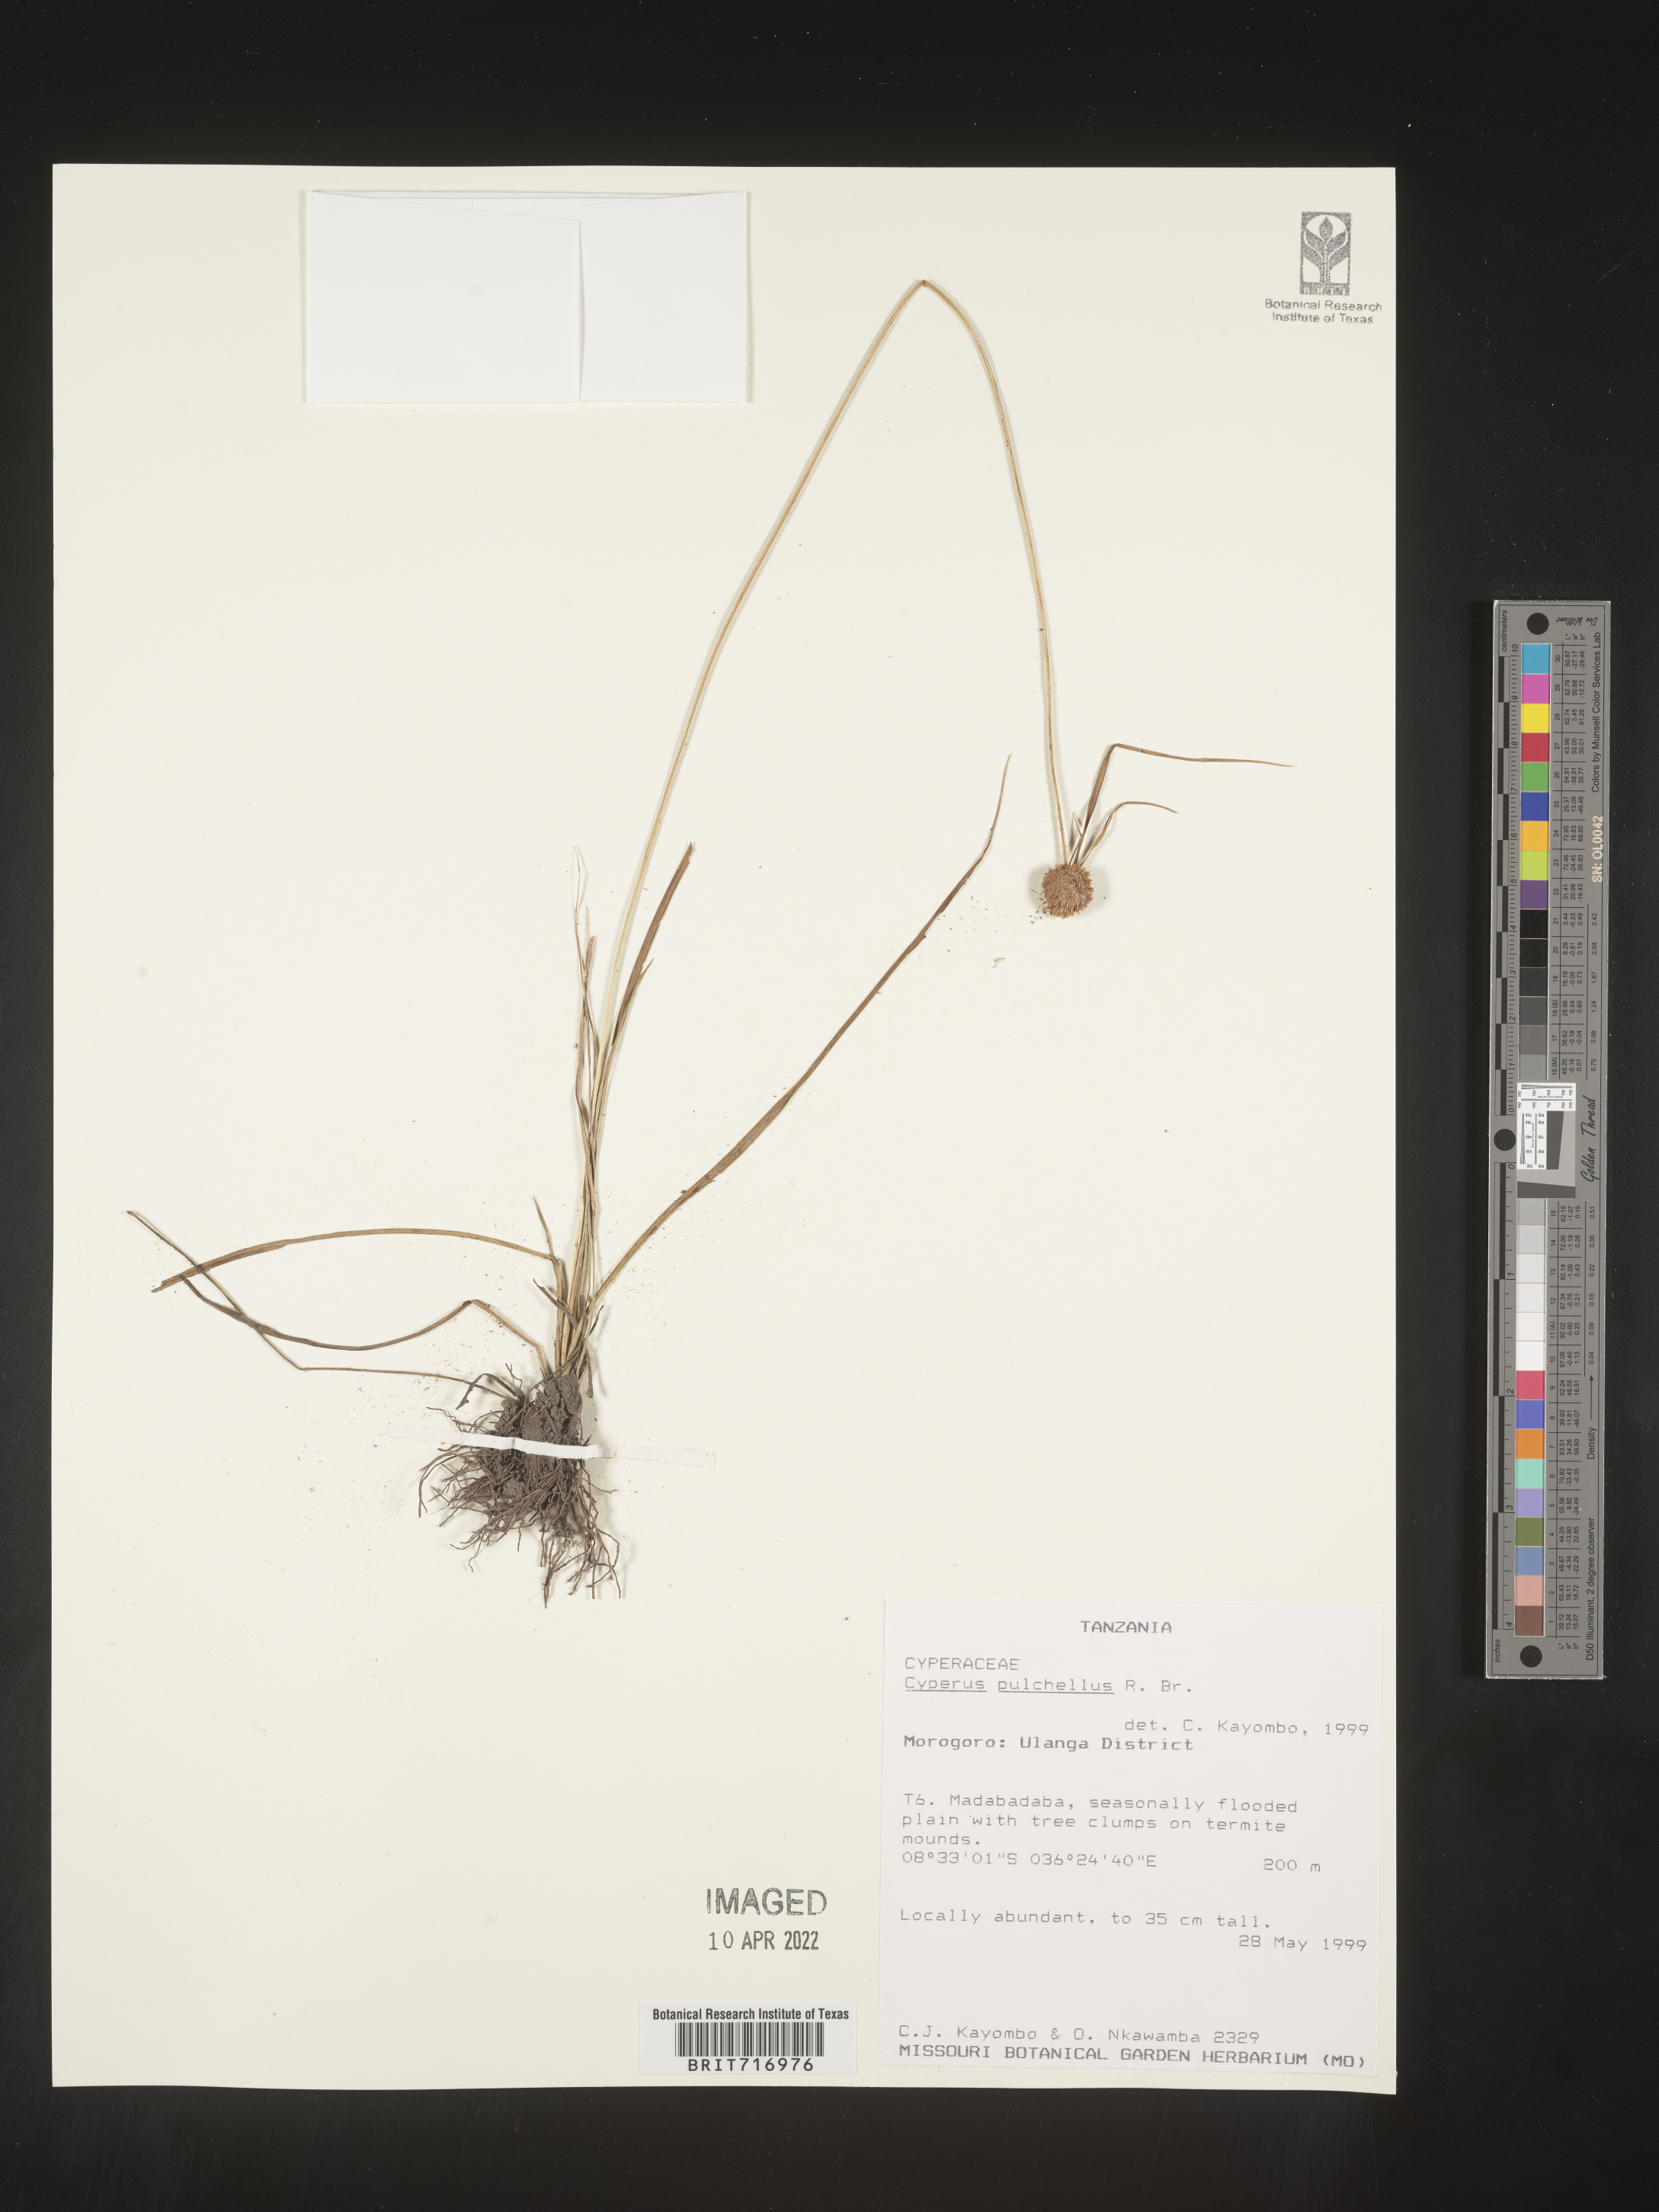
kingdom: Plantae
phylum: Tracheophyta
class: Liliopsida
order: Poales
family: Cyperaceae
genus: Cyperus
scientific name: Cyperus
